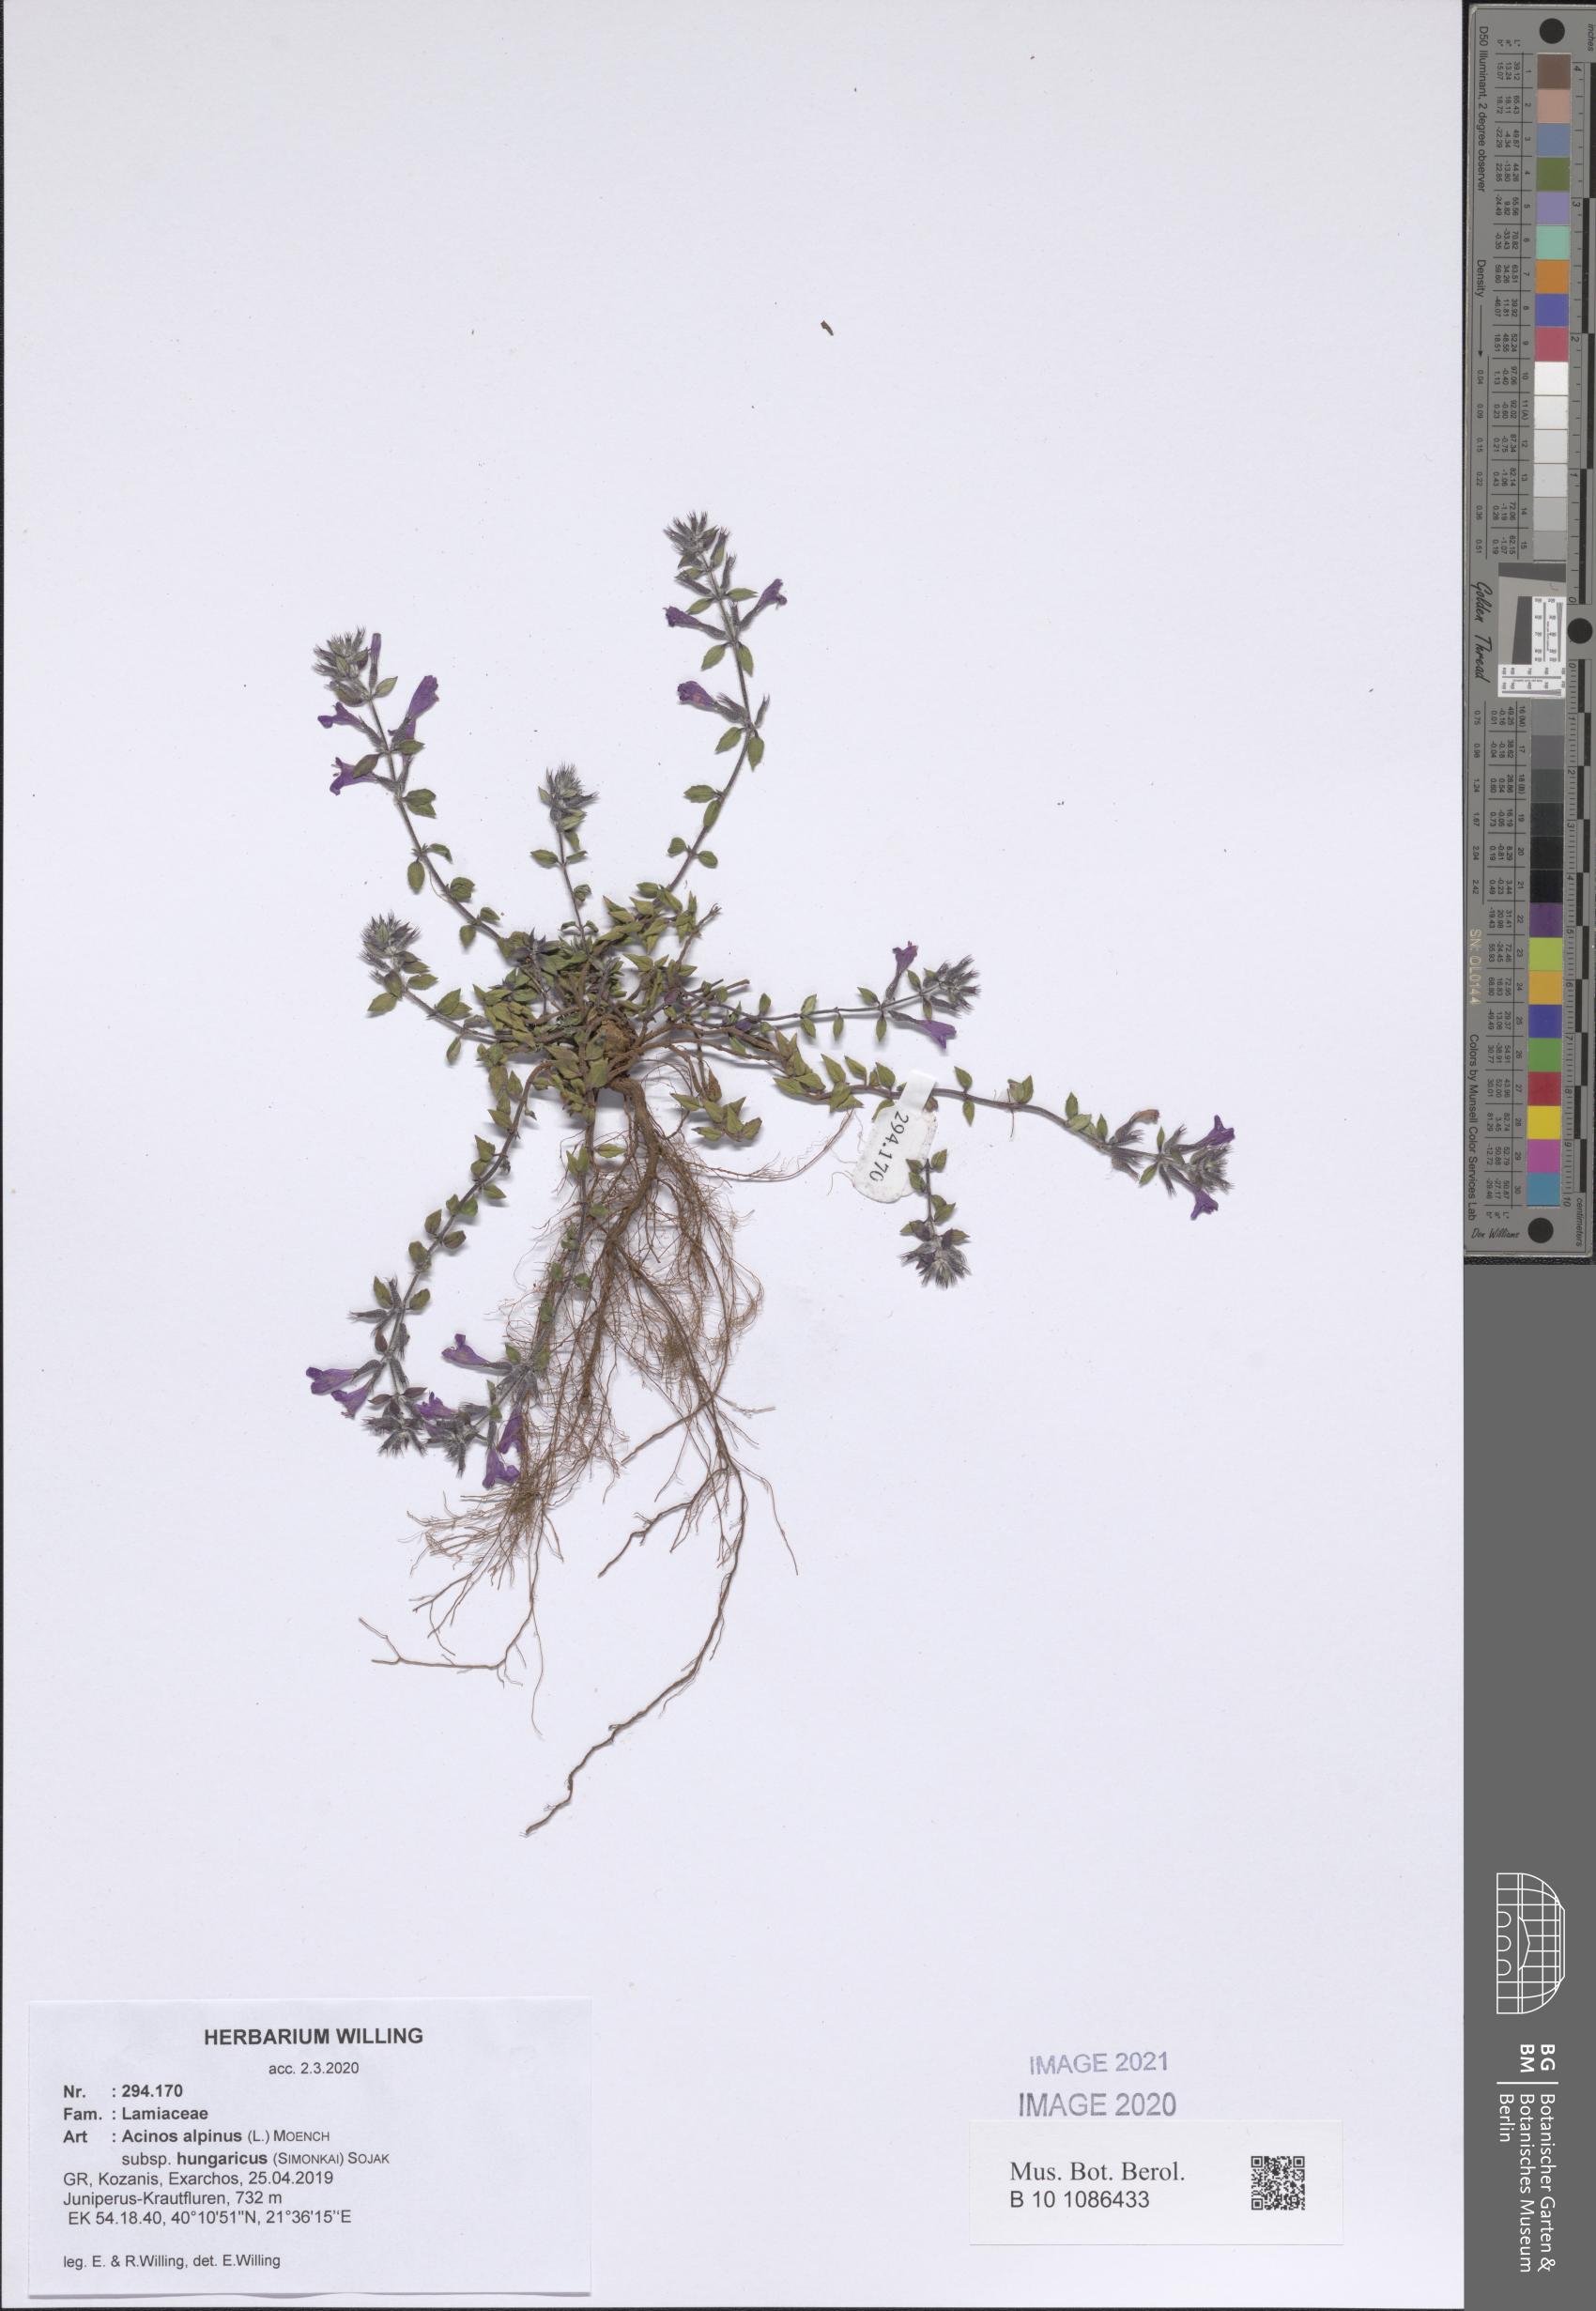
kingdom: Plantae
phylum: Tracheophyta
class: Magnoliopsida
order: Lamiales
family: Lamiaceae
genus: Clinopodium
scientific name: Clinopodium alpinum
